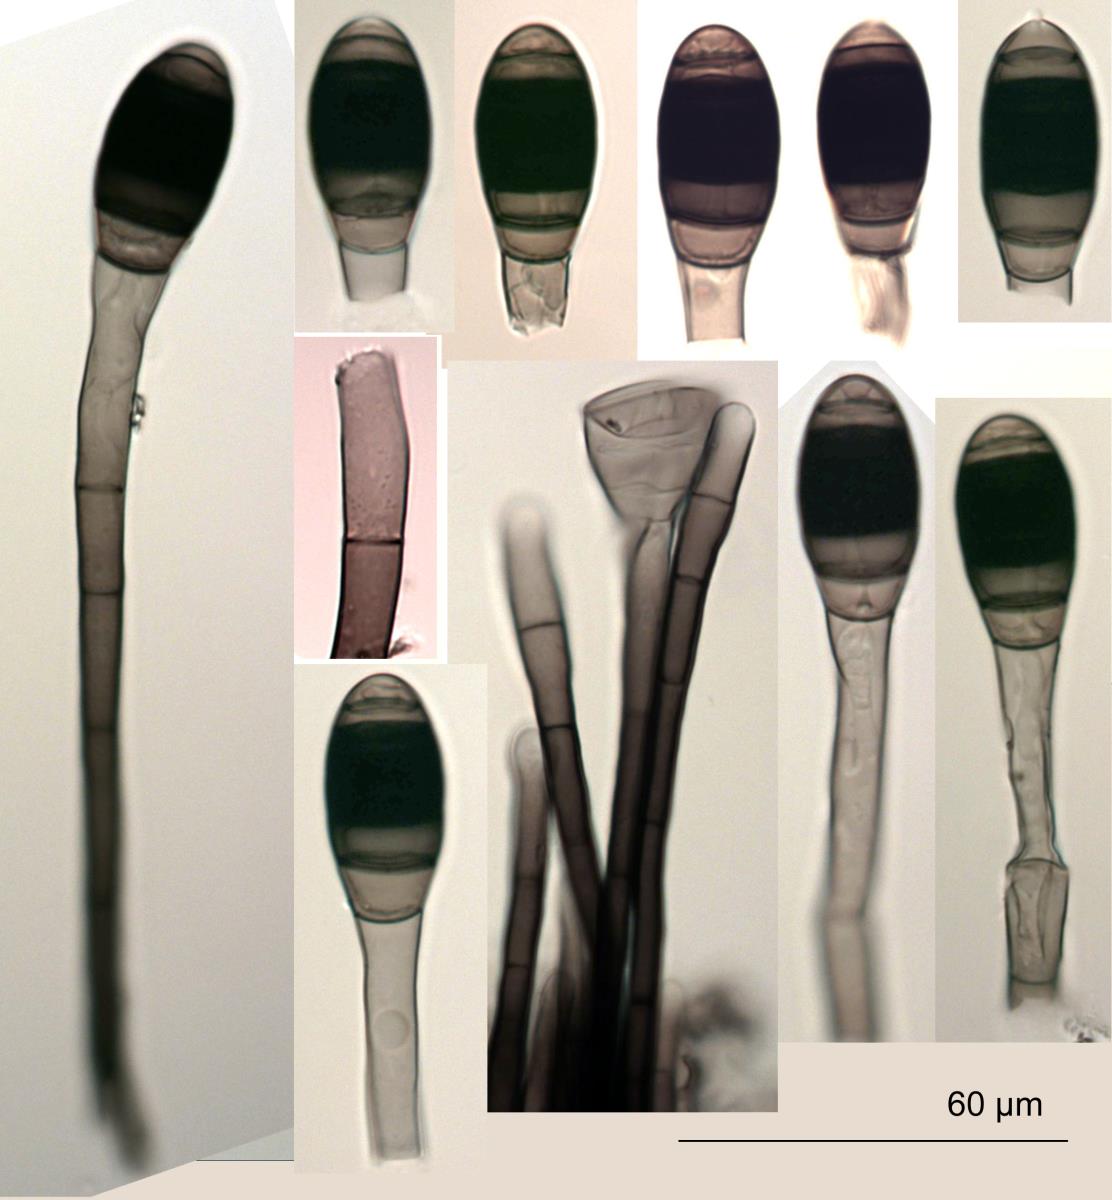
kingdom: Fungi
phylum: Ascomycota
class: Dothideomycetes
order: Pleosporales
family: Melanommataceae
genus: Phragmocephala
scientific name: Phragmocephala elliptica
